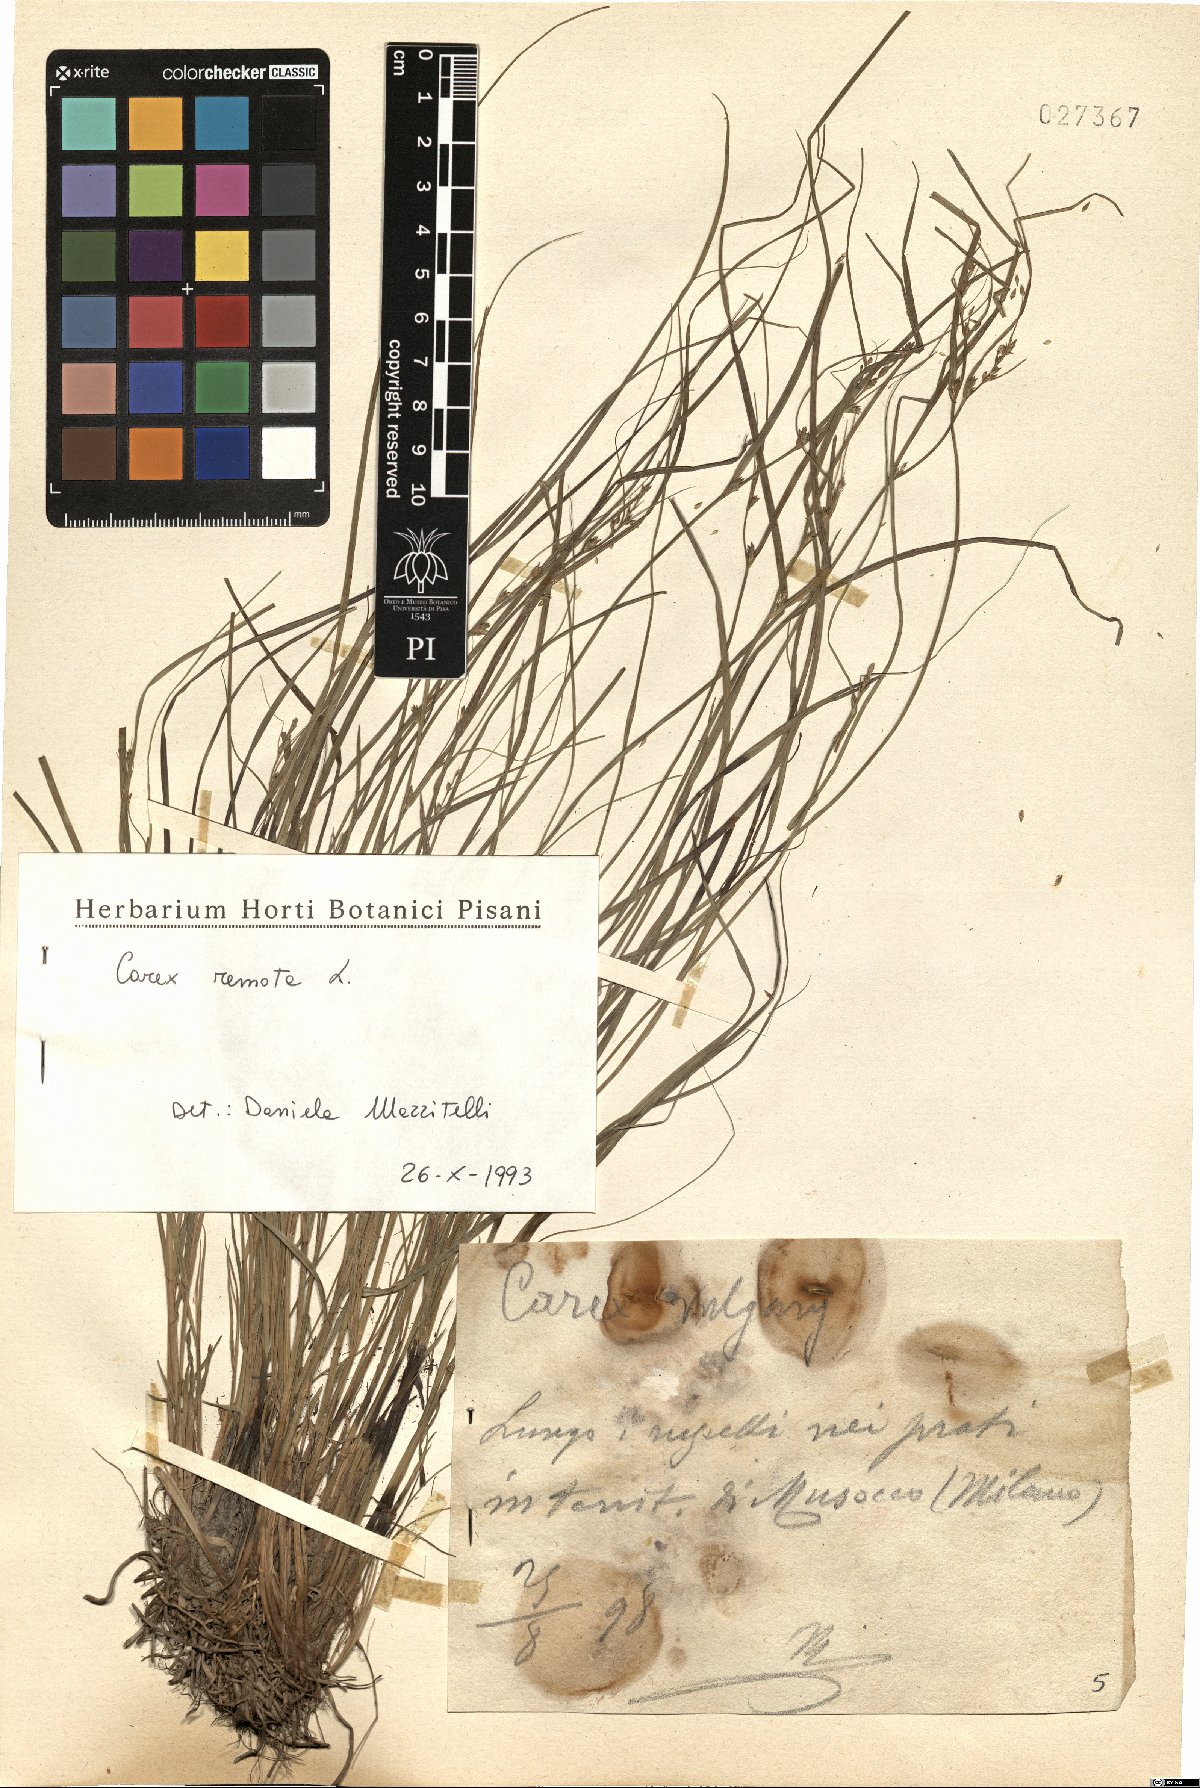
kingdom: Plantae
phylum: Tracheophyta
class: Liliopsida
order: Poales
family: Cyperaceae
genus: Carex
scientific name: Carex remota
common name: Remote sedge
